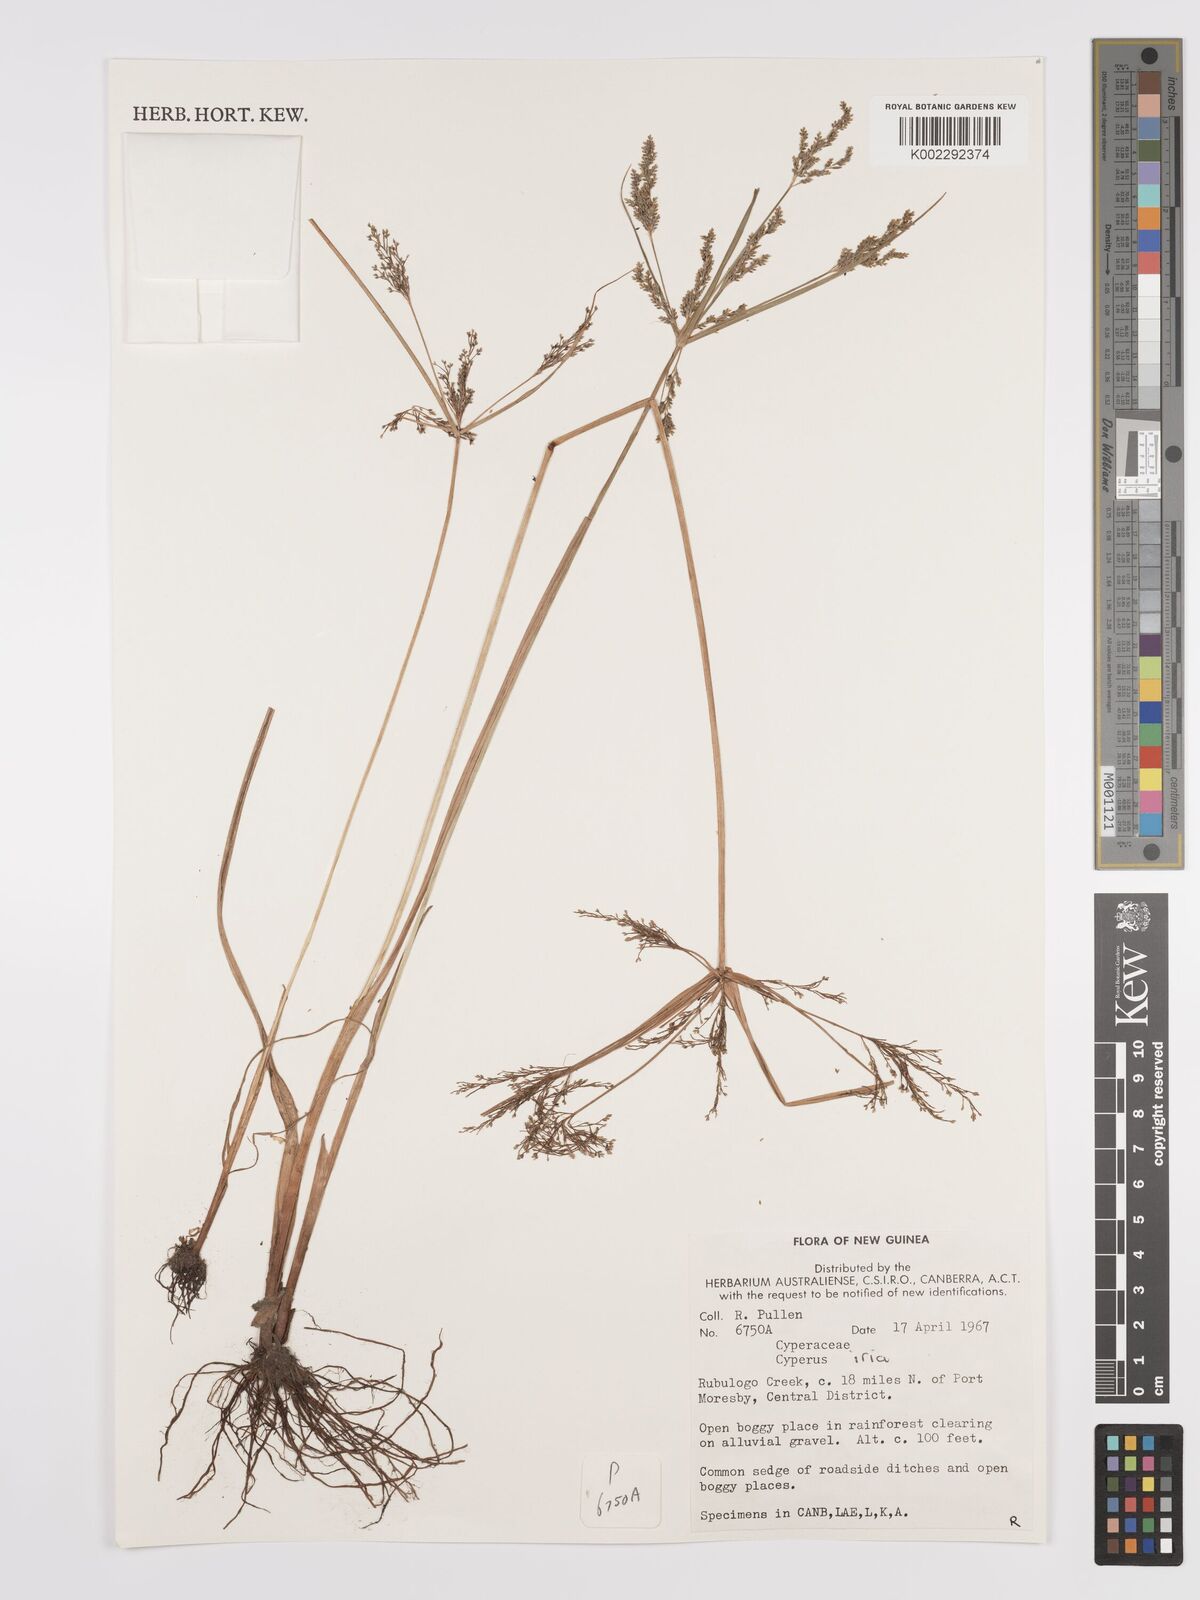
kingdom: Plantae
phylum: Tracheophyta
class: Liliopsida
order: Poales
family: Cyperaceae
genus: Cyperus
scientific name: Cyperus iria
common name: Ricefield flatsedge
